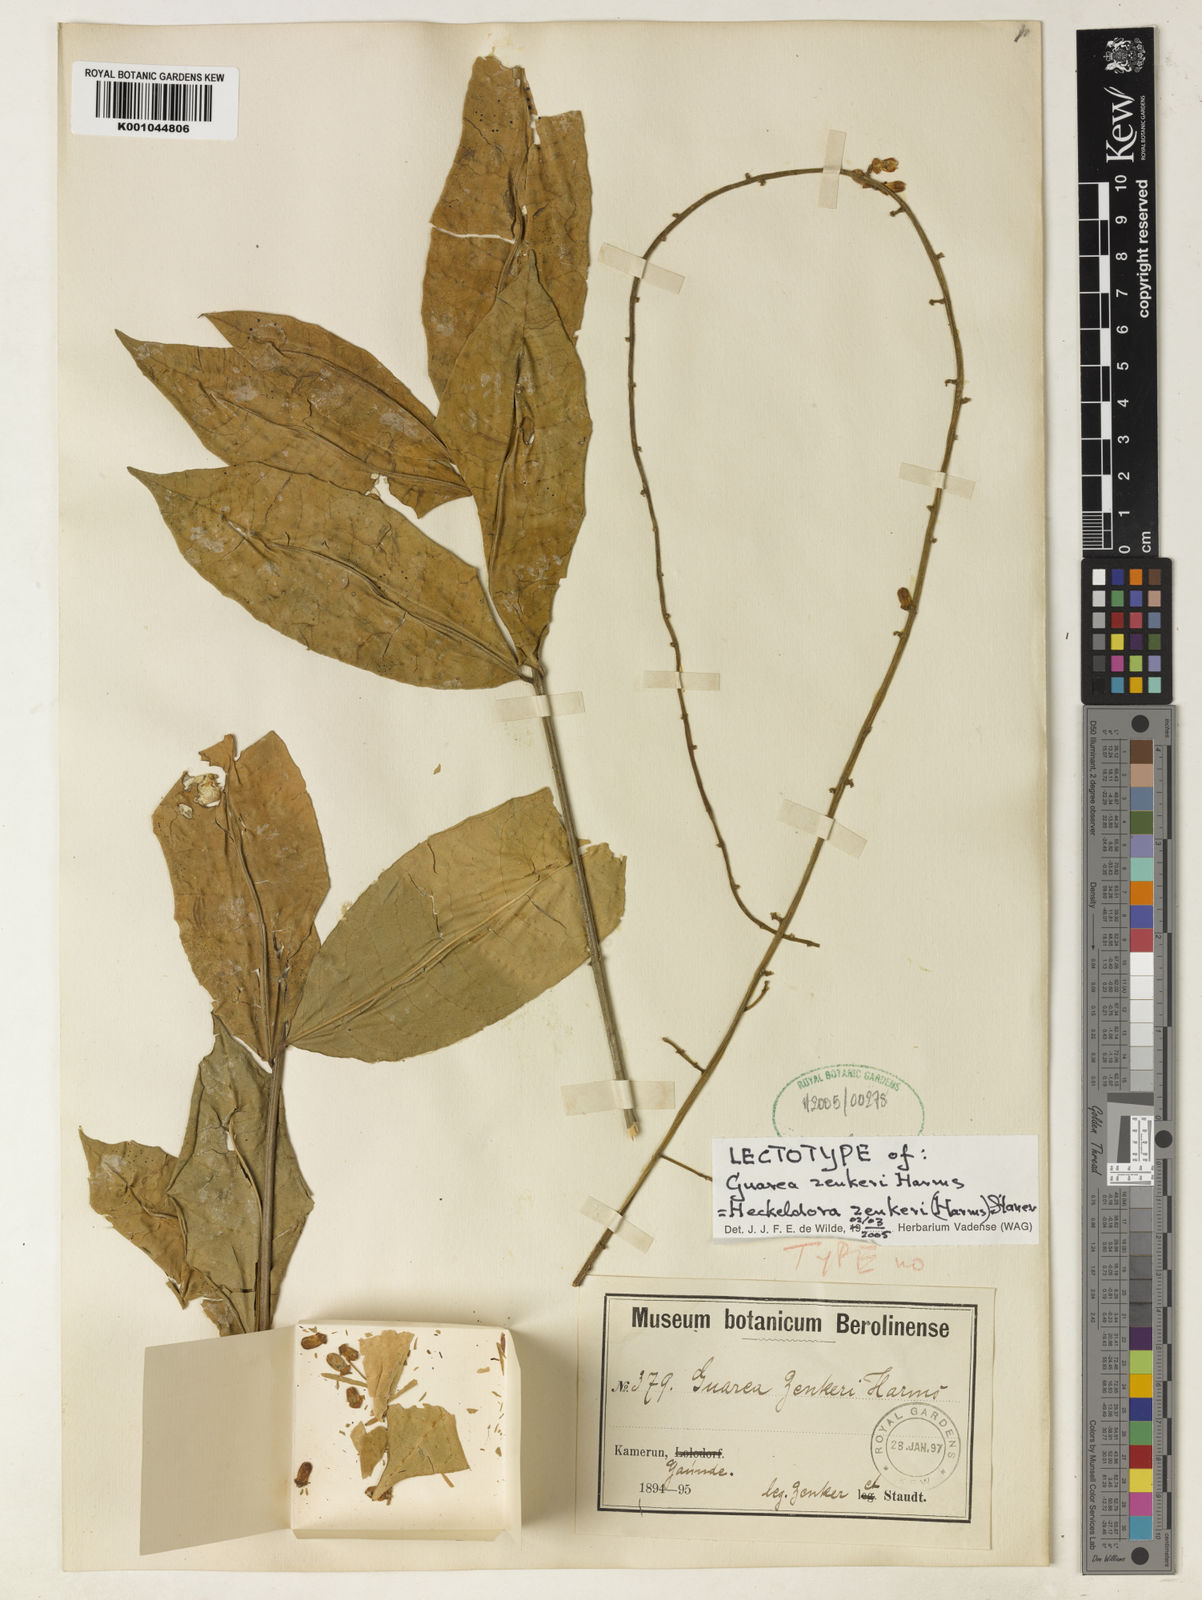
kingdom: Plantae
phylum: Tracheophyta
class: Magnoliopsida
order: Sapindales
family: Meliaceae
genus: Heckeldora
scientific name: Heckeldora zenkeri
